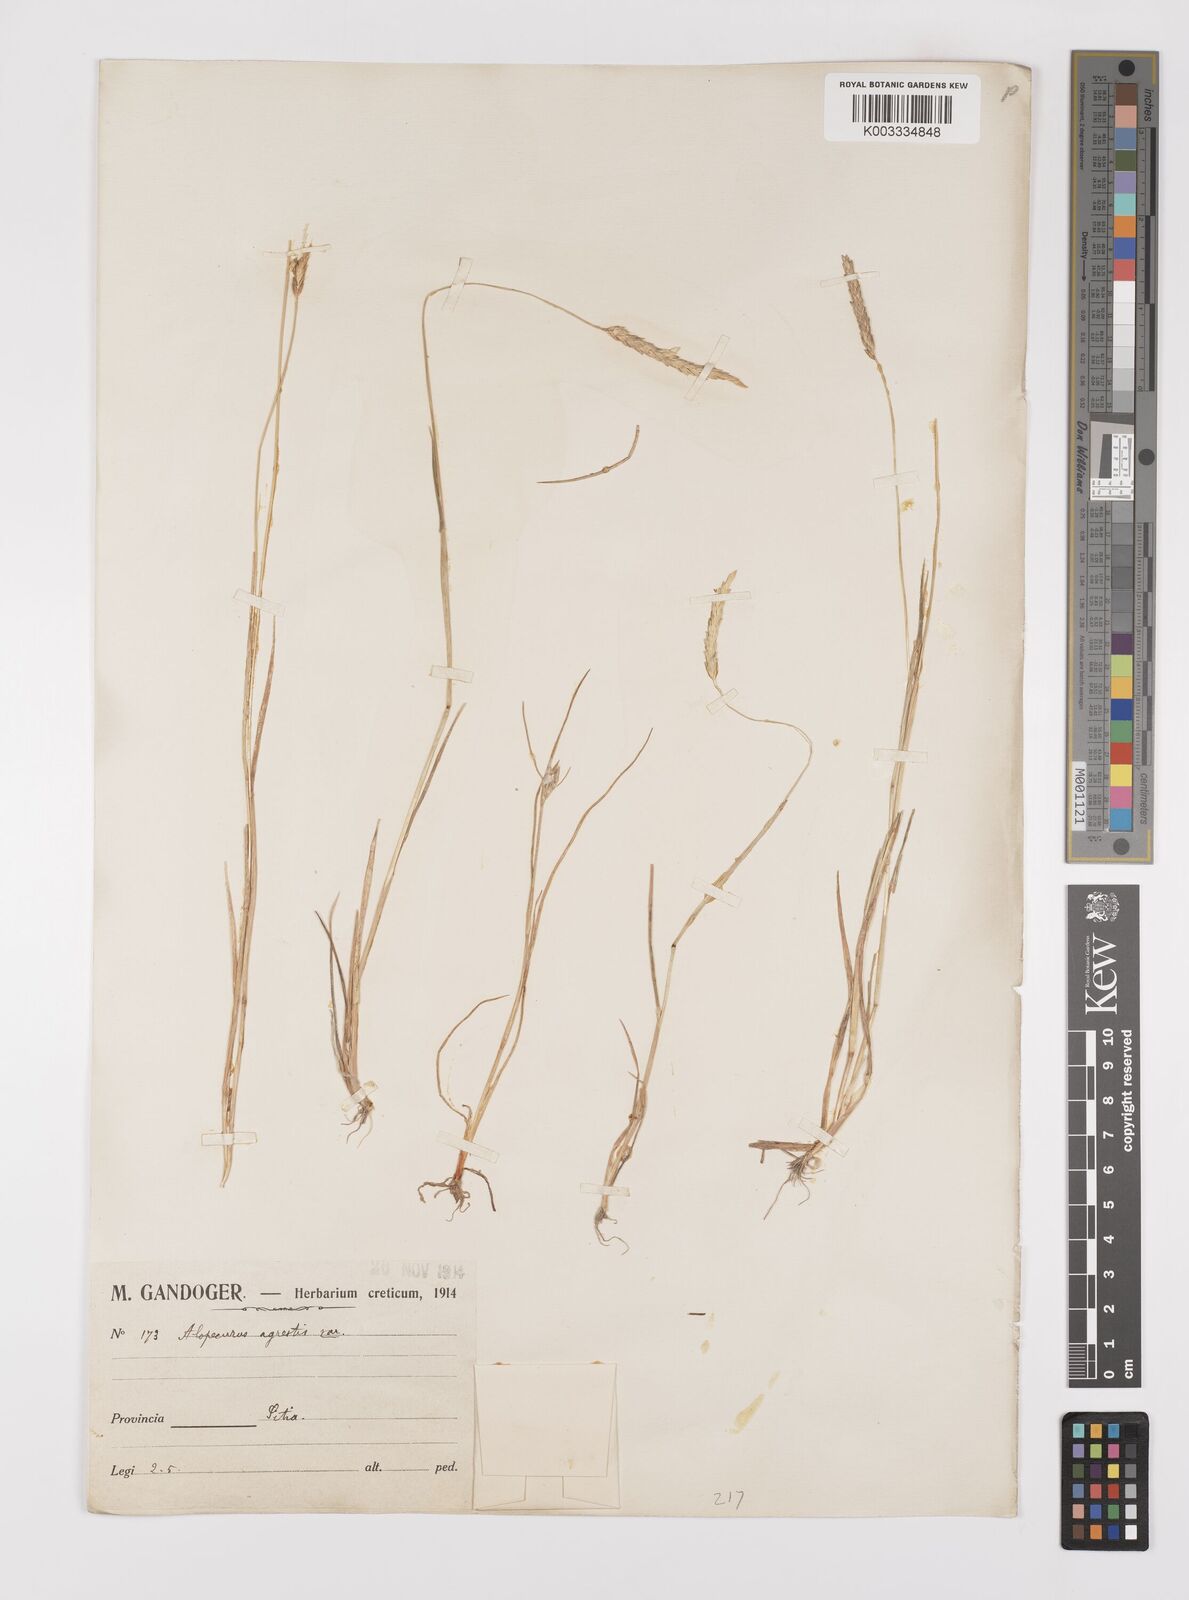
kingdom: Plantae
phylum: Tracheophyta
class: Liliopsida
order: Poales
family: Poaceae
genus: Alopecurus
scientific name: Alopecurus myosuroides
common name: Black-grass
